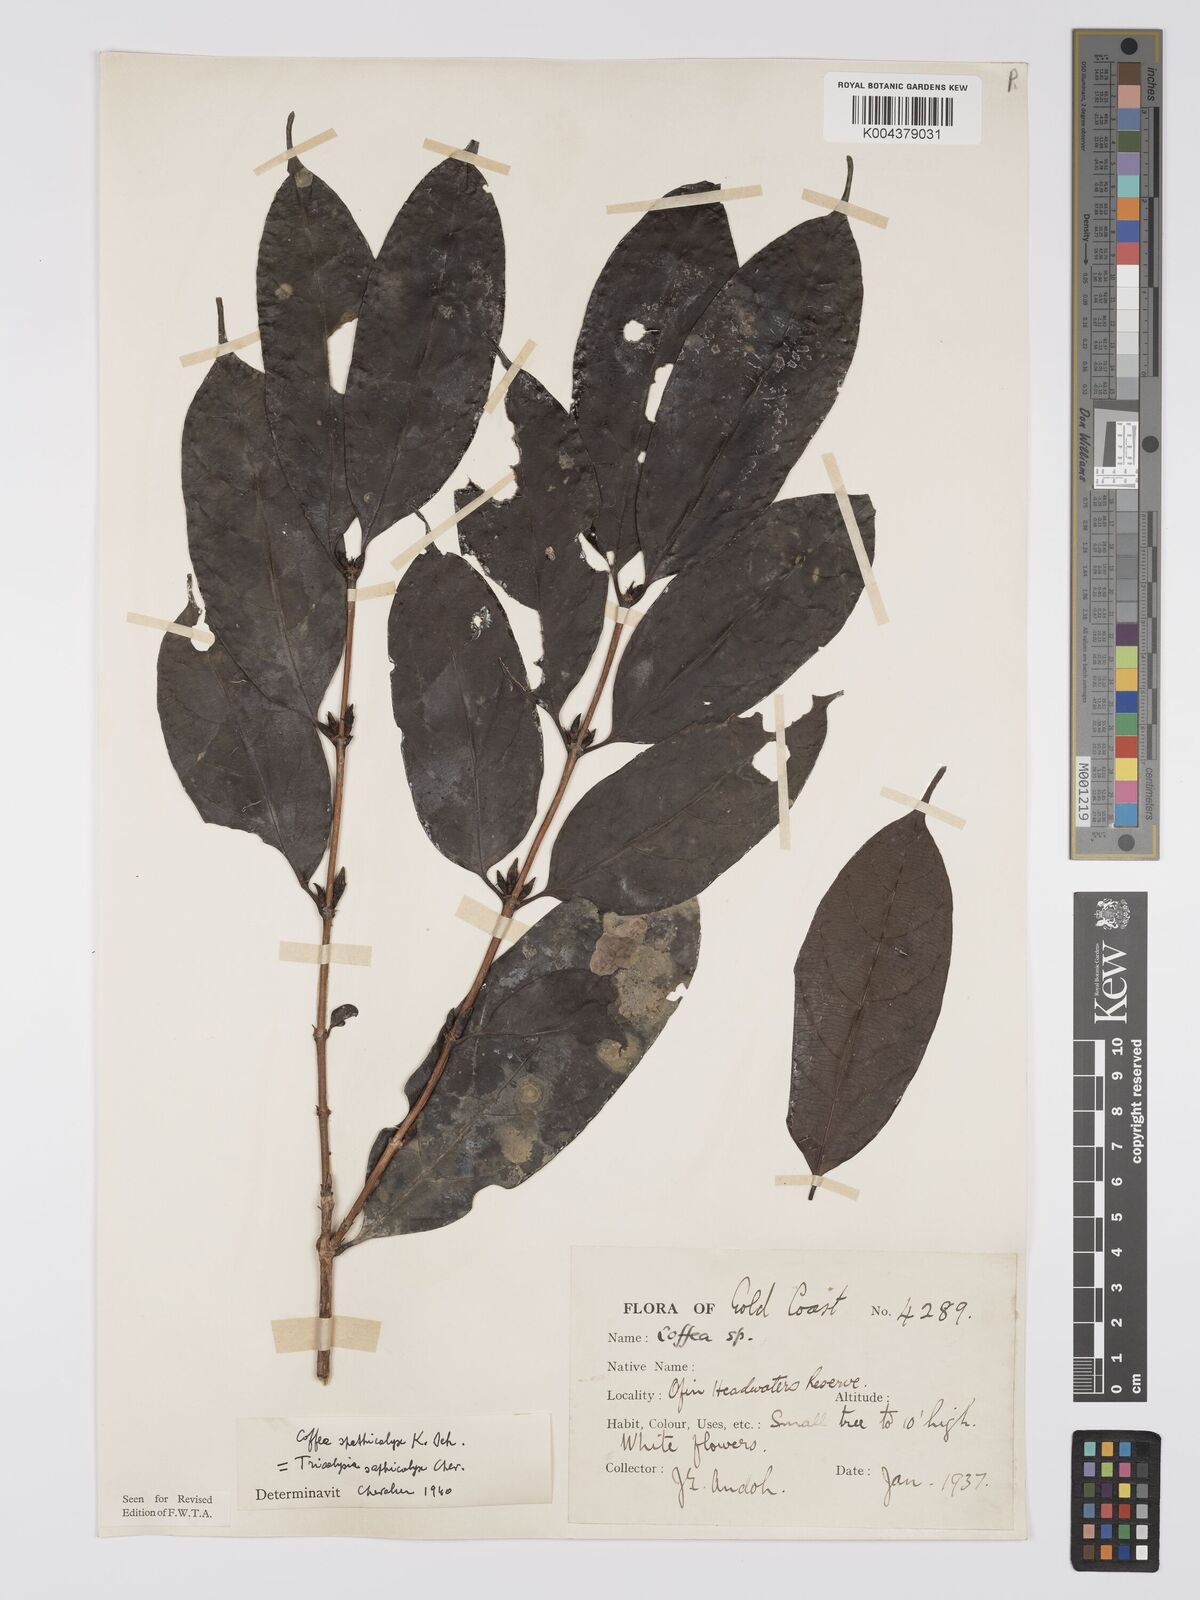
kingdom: Plantae
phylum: Tracheophyta
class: Magnoliopsida
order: Gentianales
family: Rubiaceae
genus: Calycosiphonia
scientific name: Calycosiphonia spathicalyx
